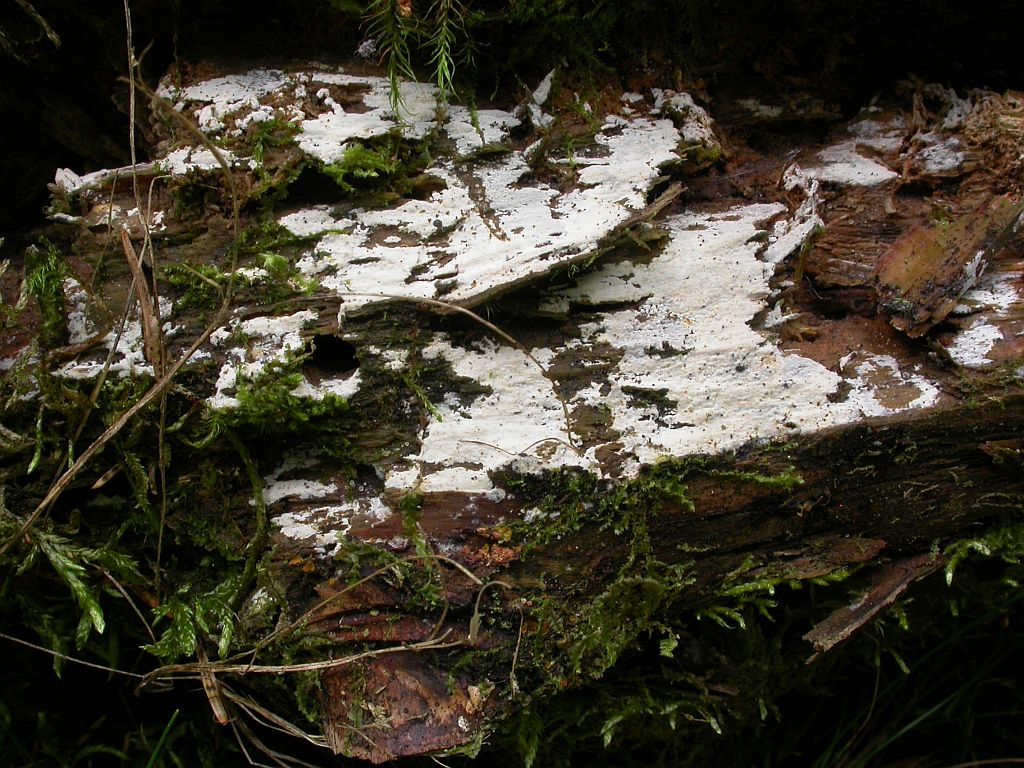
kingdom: Fungi
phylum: Basidiomycota
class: Agaricomycetes
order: Hymenochaetales
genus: Kurtia
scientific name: Kurtia argillacea
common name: Kurts kalkskind
